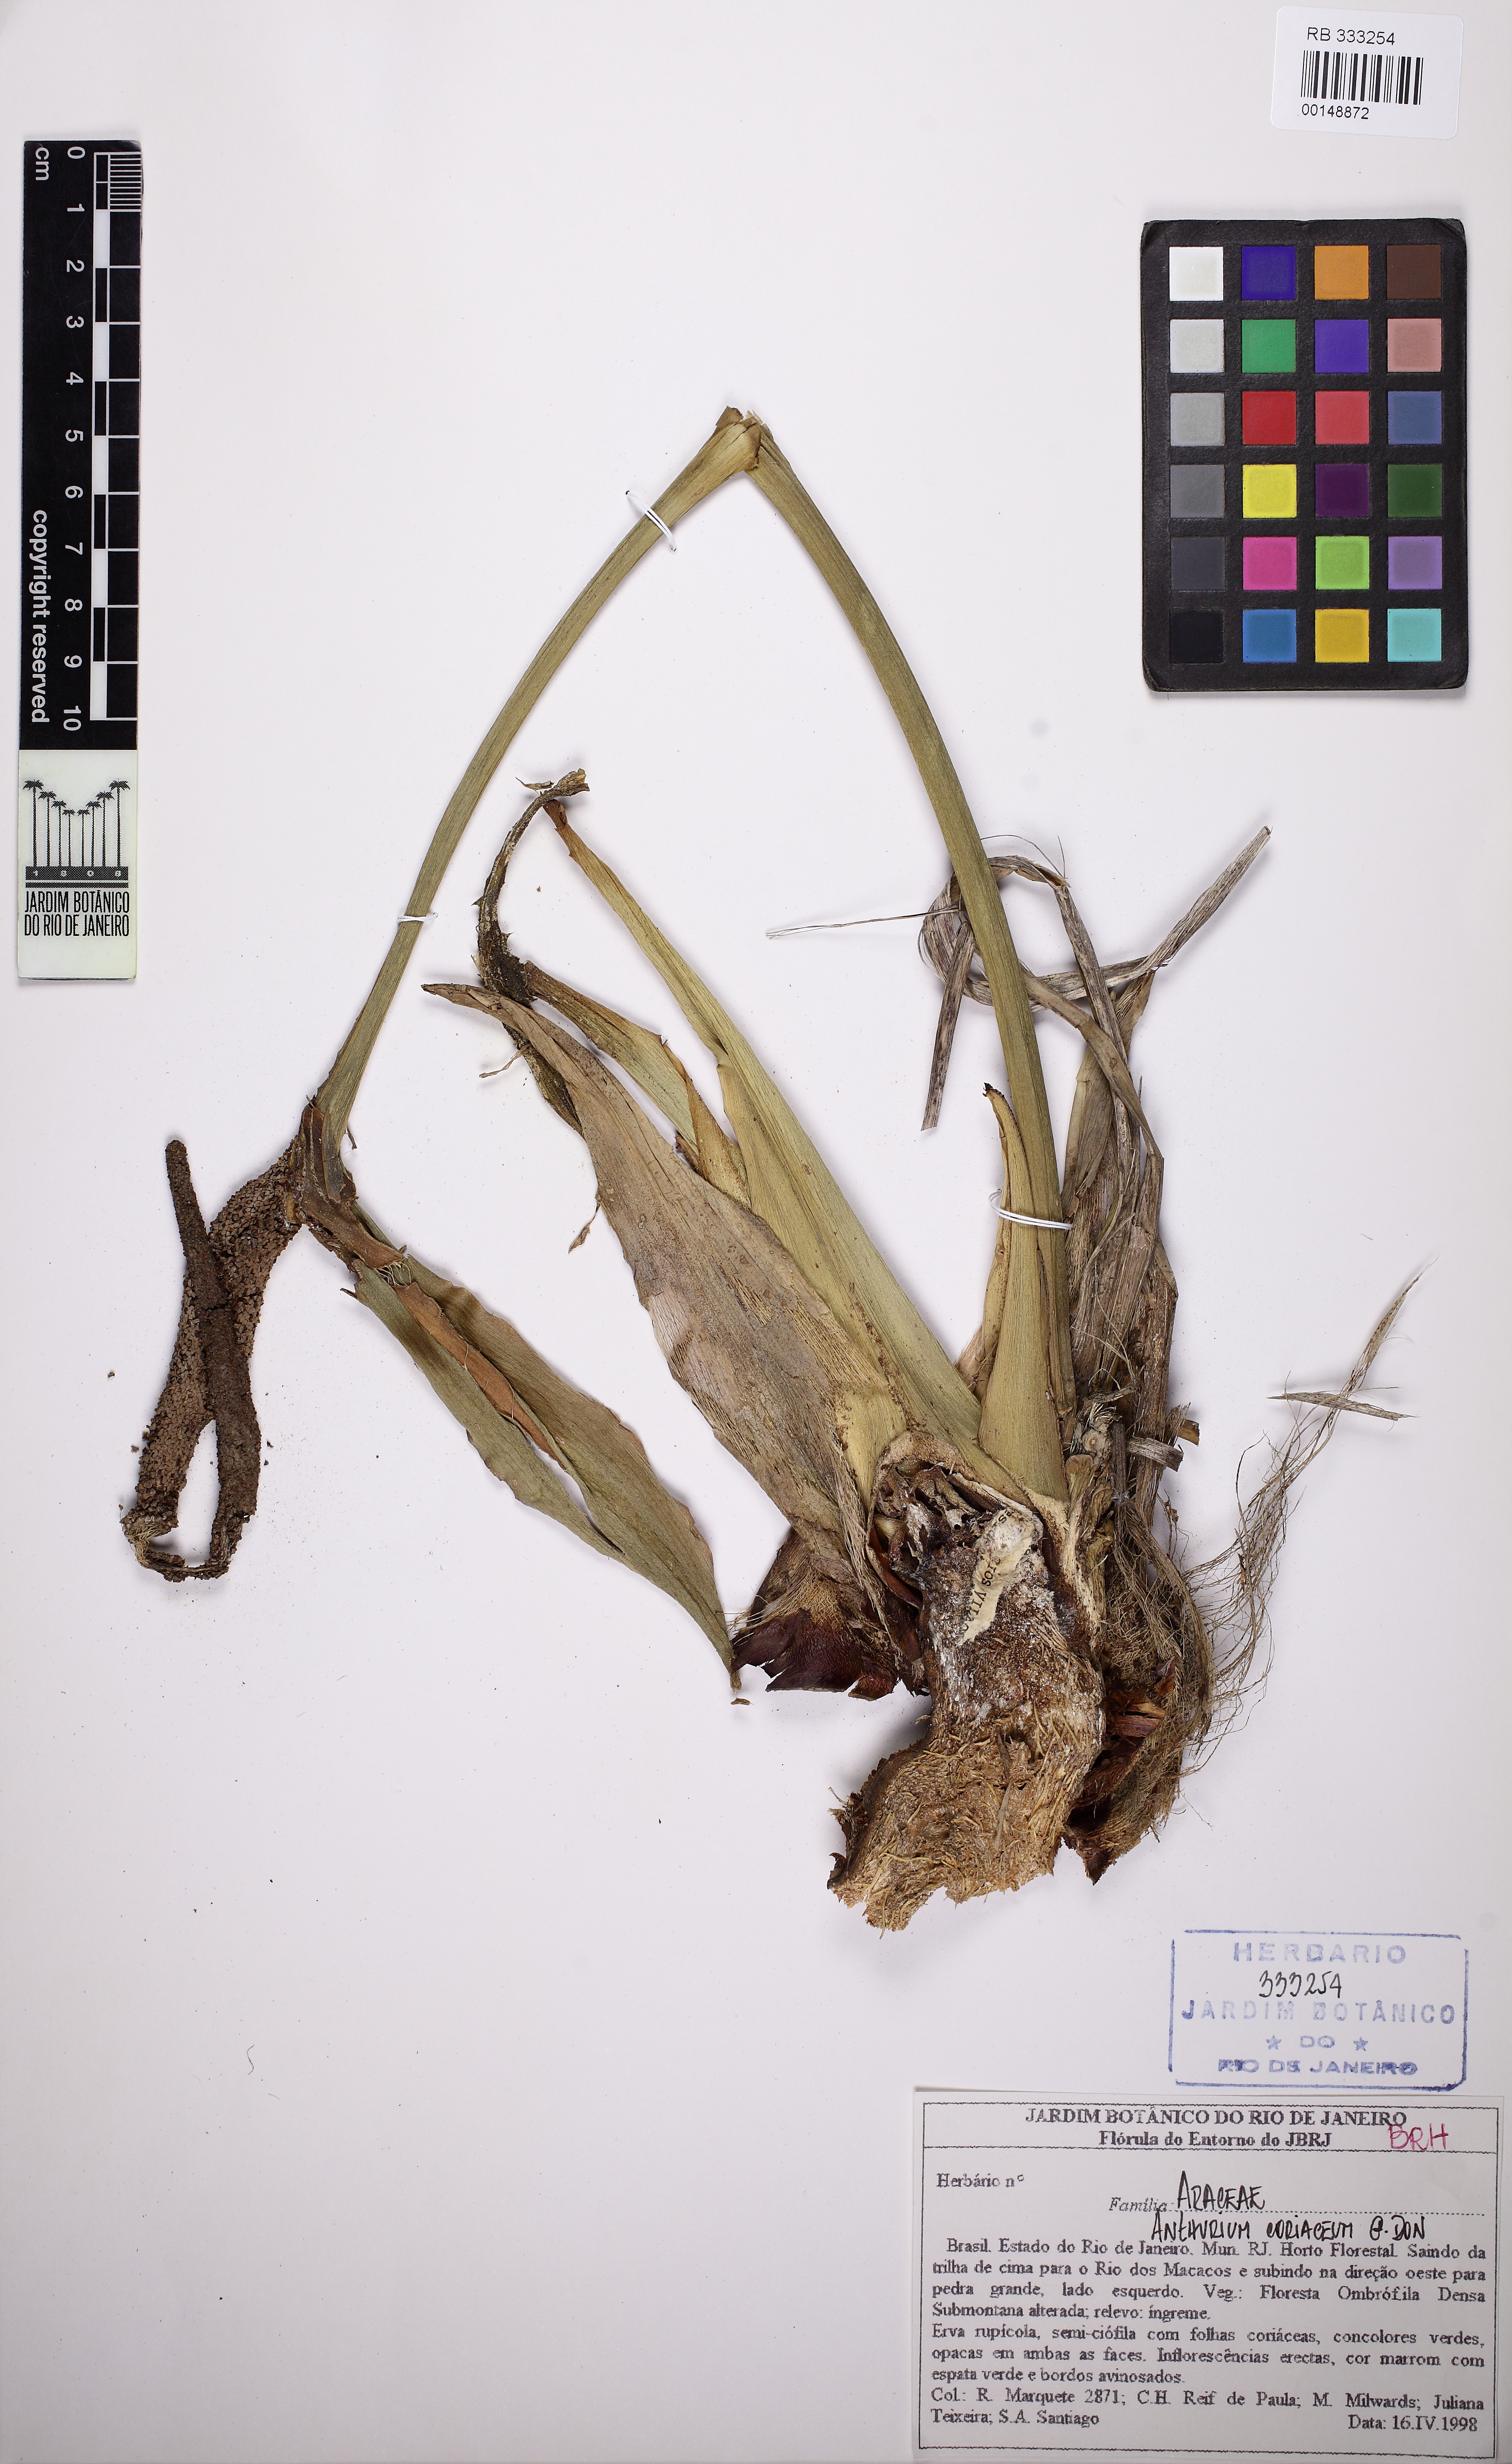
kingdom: Plantae
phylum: Tracheophyta
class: Liliopsida
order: Alismatales
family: Araceae
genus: Anthurium
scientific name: Anthurium coriaceum
